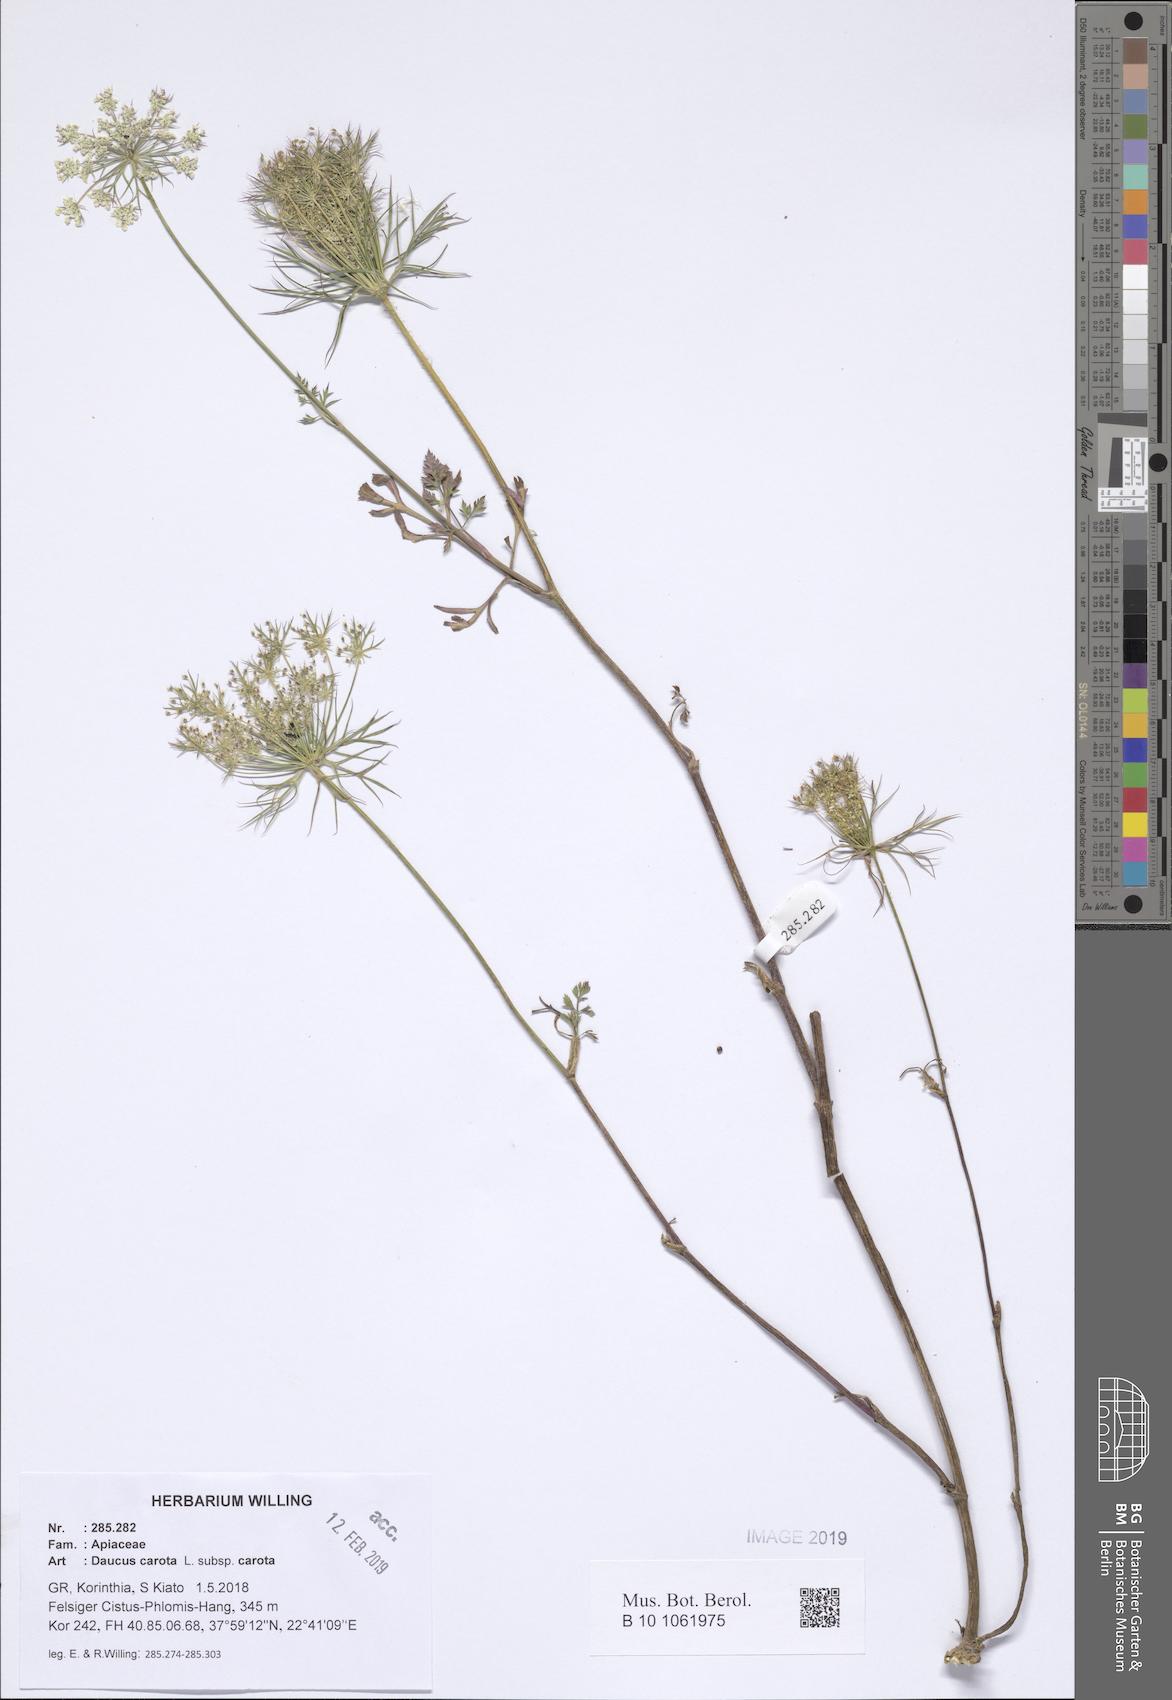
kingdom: Plantae
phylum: Tracheophyta
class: Magnoliopsida
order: Apiales
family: Apiaceae
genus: Daucus
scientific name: Daucus carota
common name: Wild carrot
